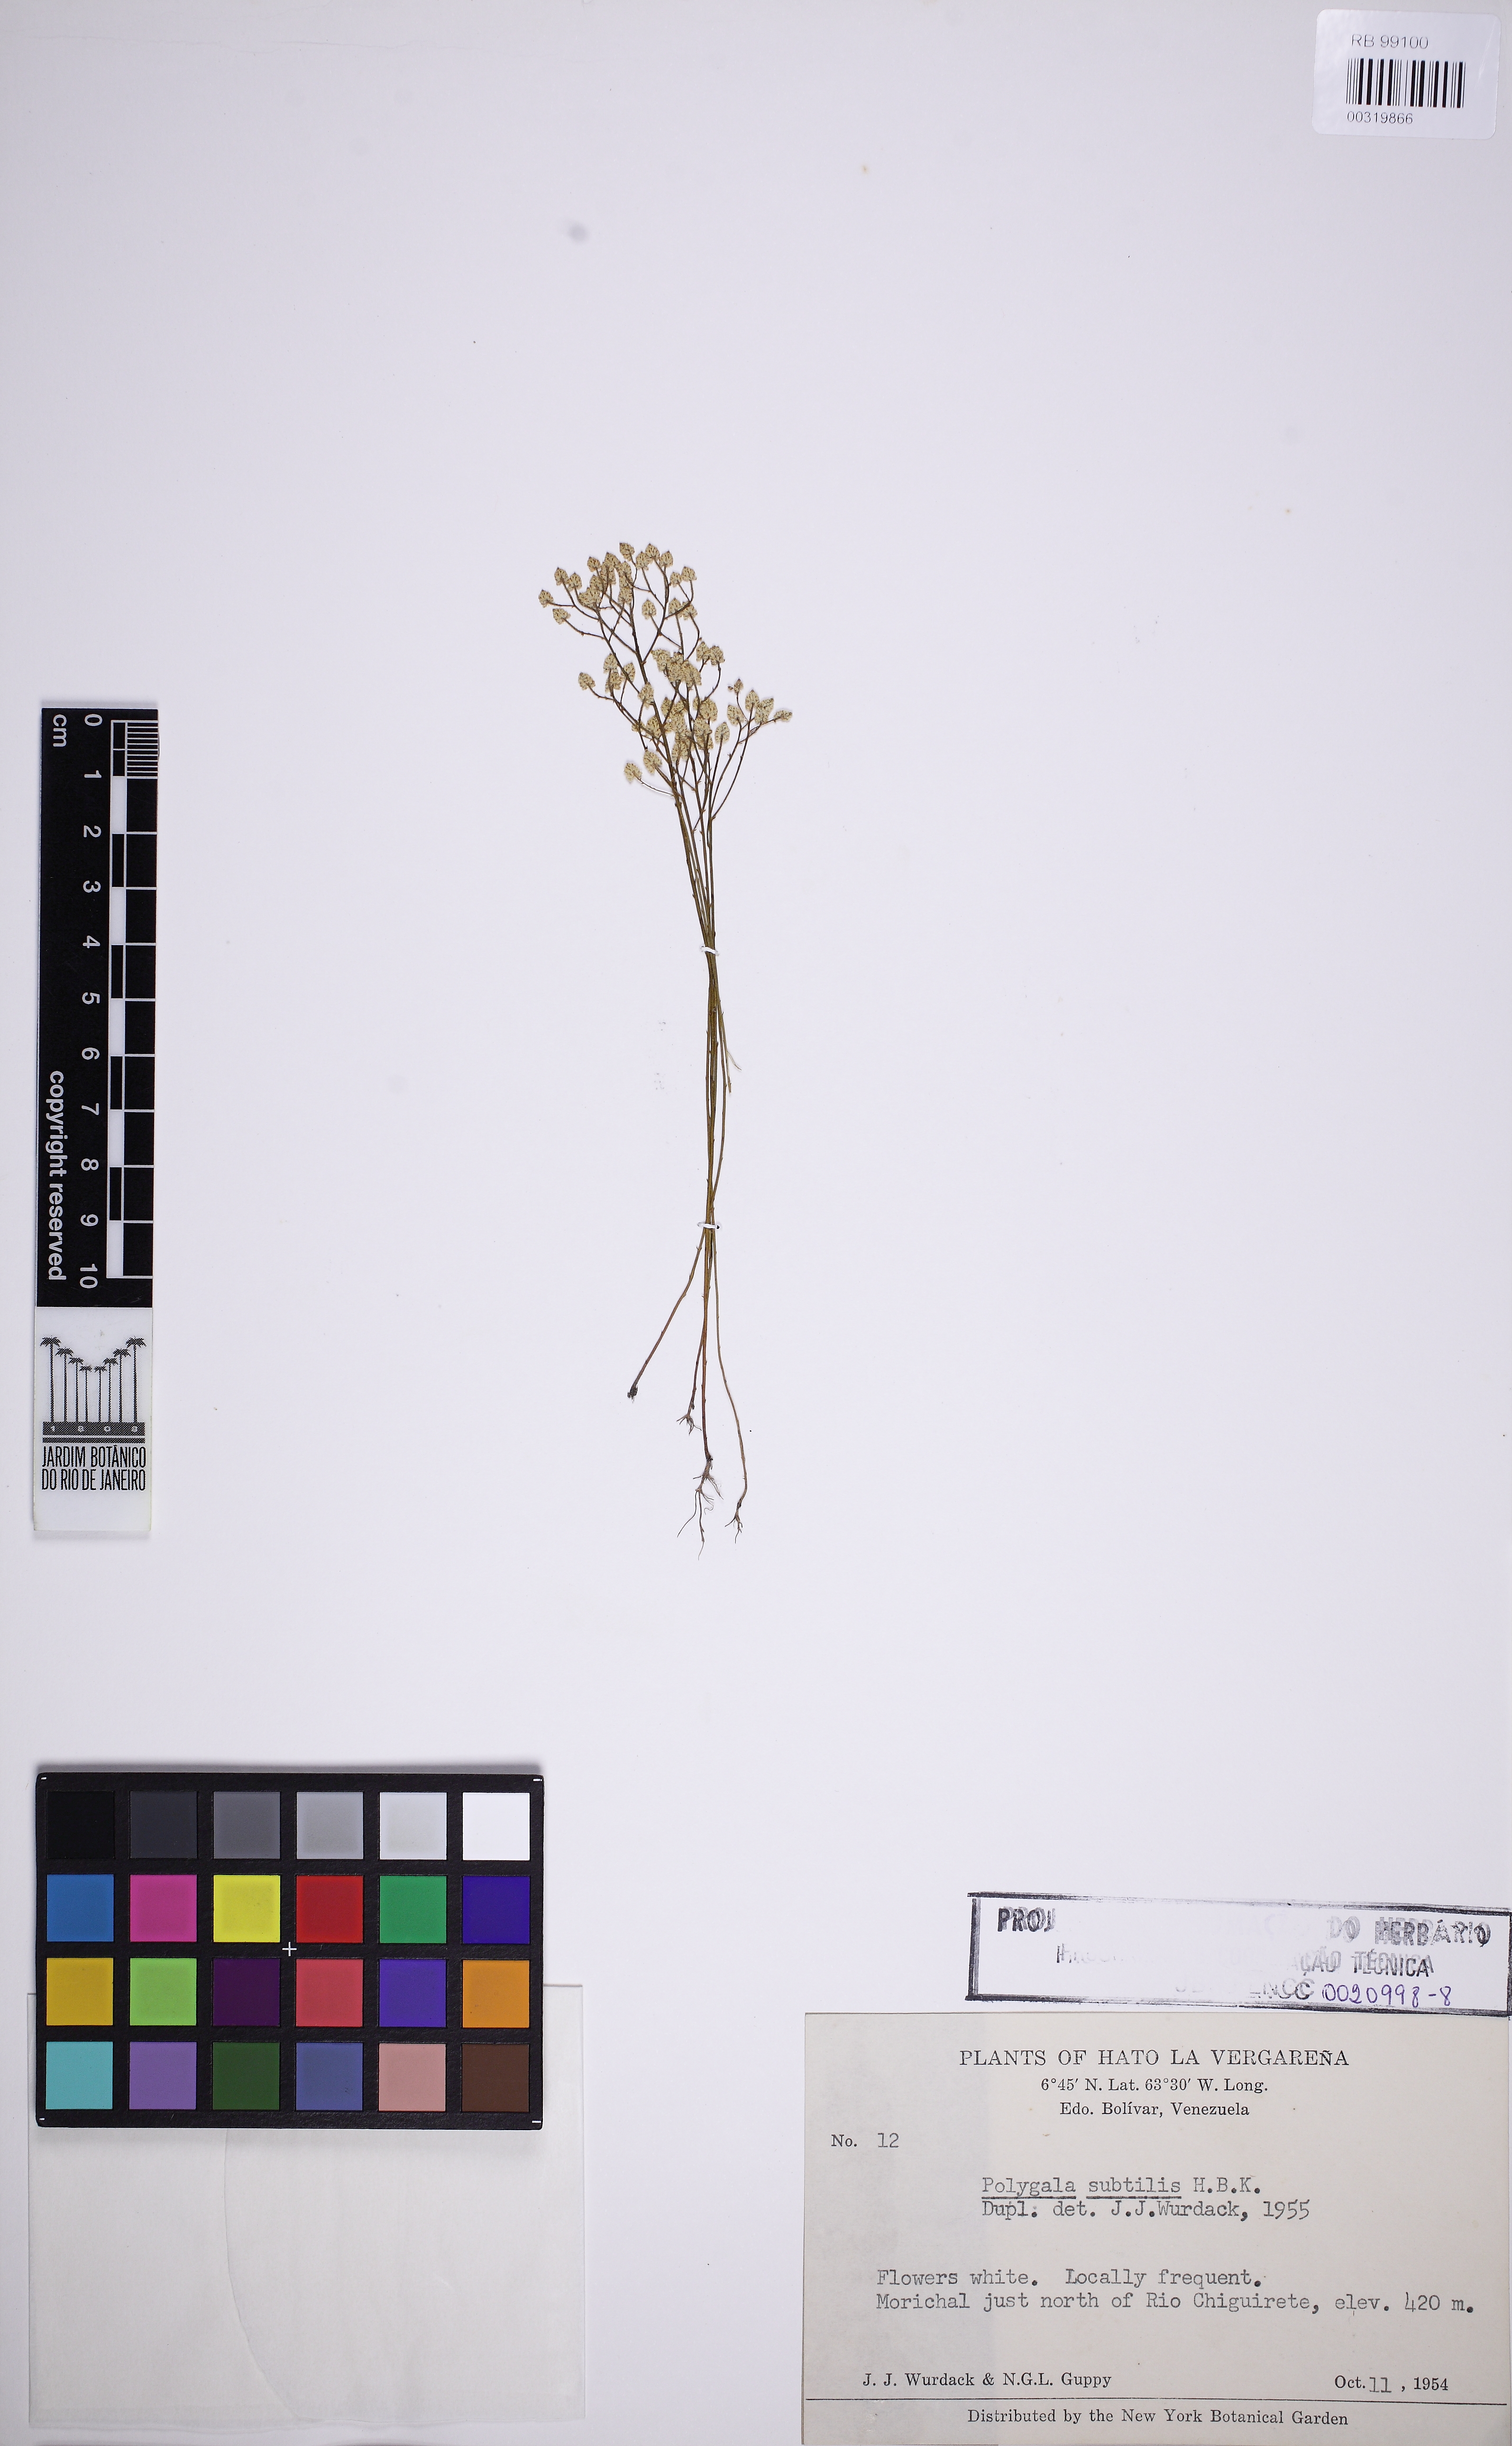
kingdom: Plantae
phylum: Tracheophyta
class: Magnoliopsida
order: Fabales
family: Polygalaceae
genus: Polygala
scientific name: Polygala subtilis
